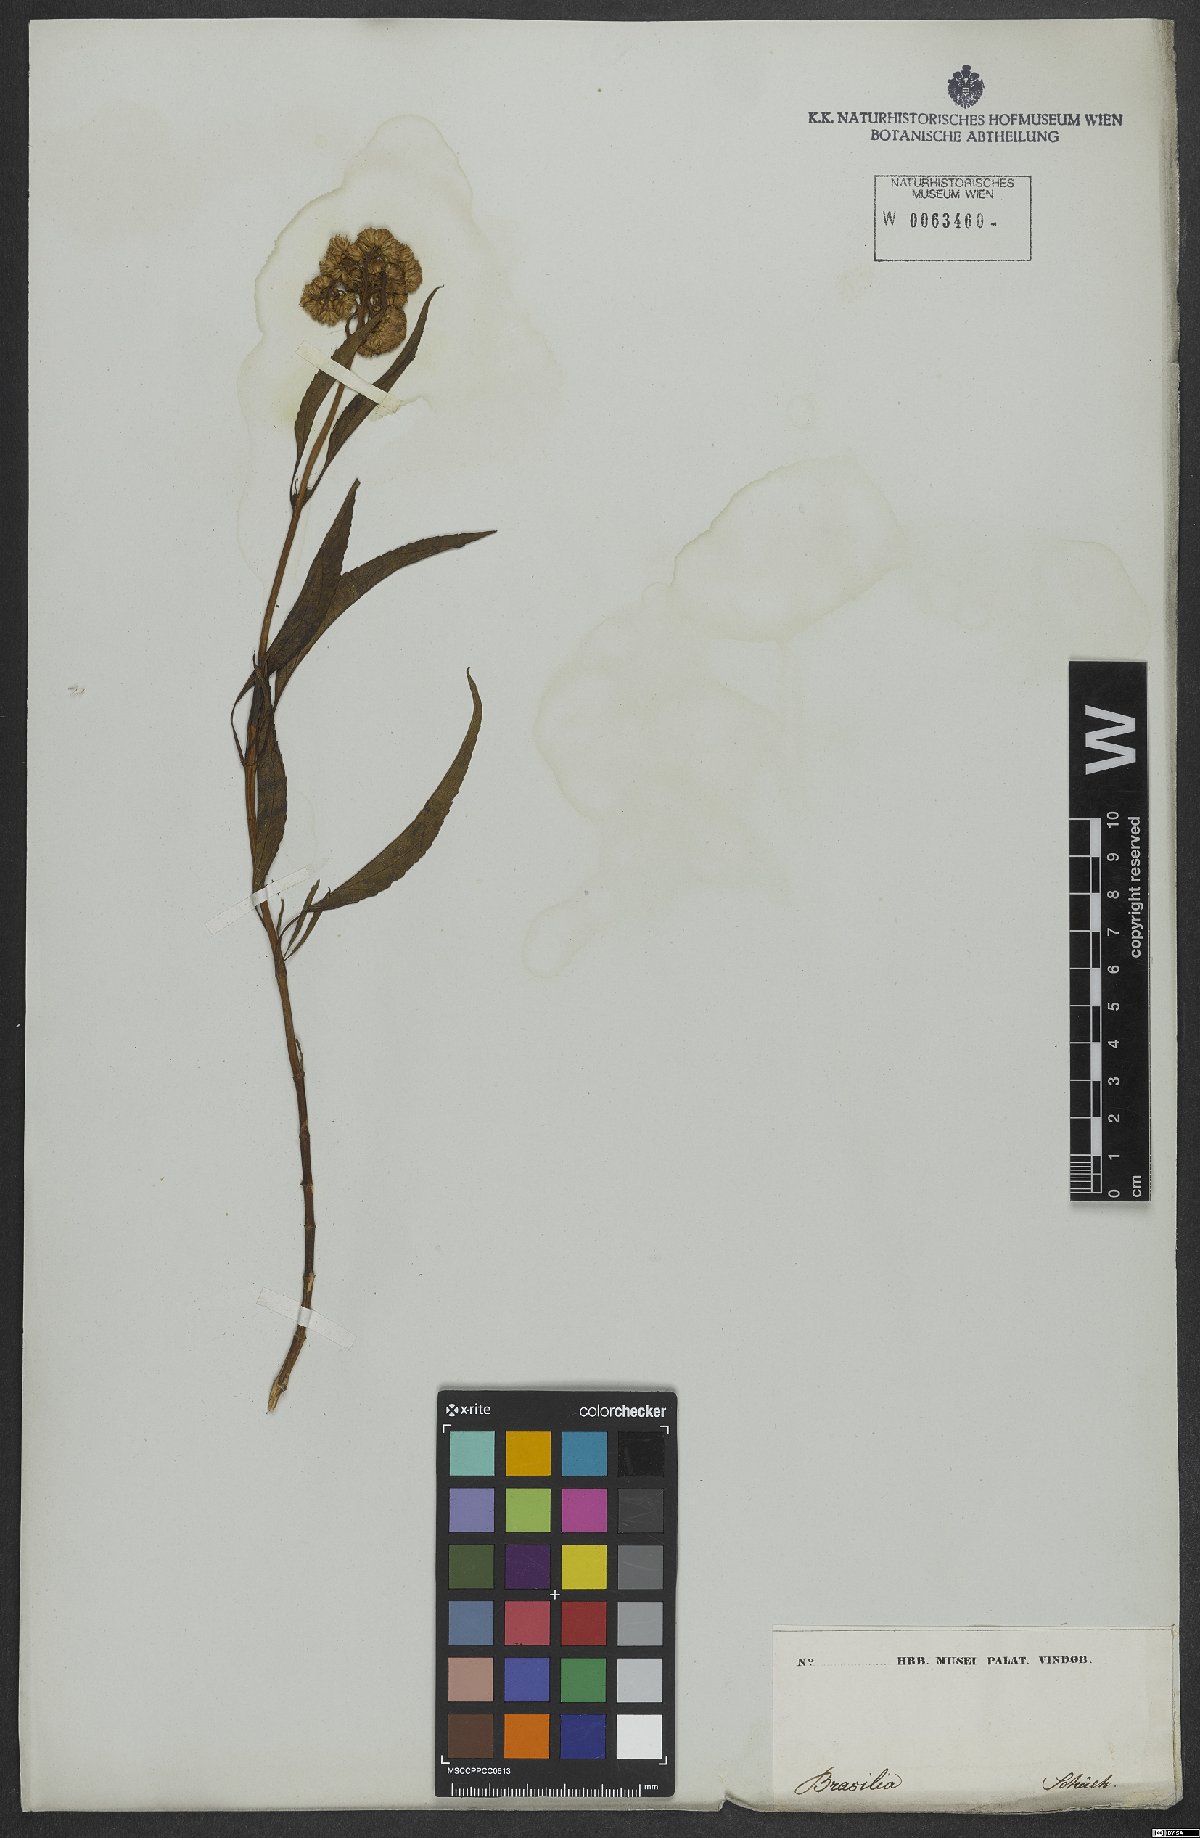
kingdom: Plantae
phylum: Tracheophyta
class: Magnoliopsida
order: Asterales
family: Asteraceae
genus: Pluchea
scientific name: Pluchea sagittalis
